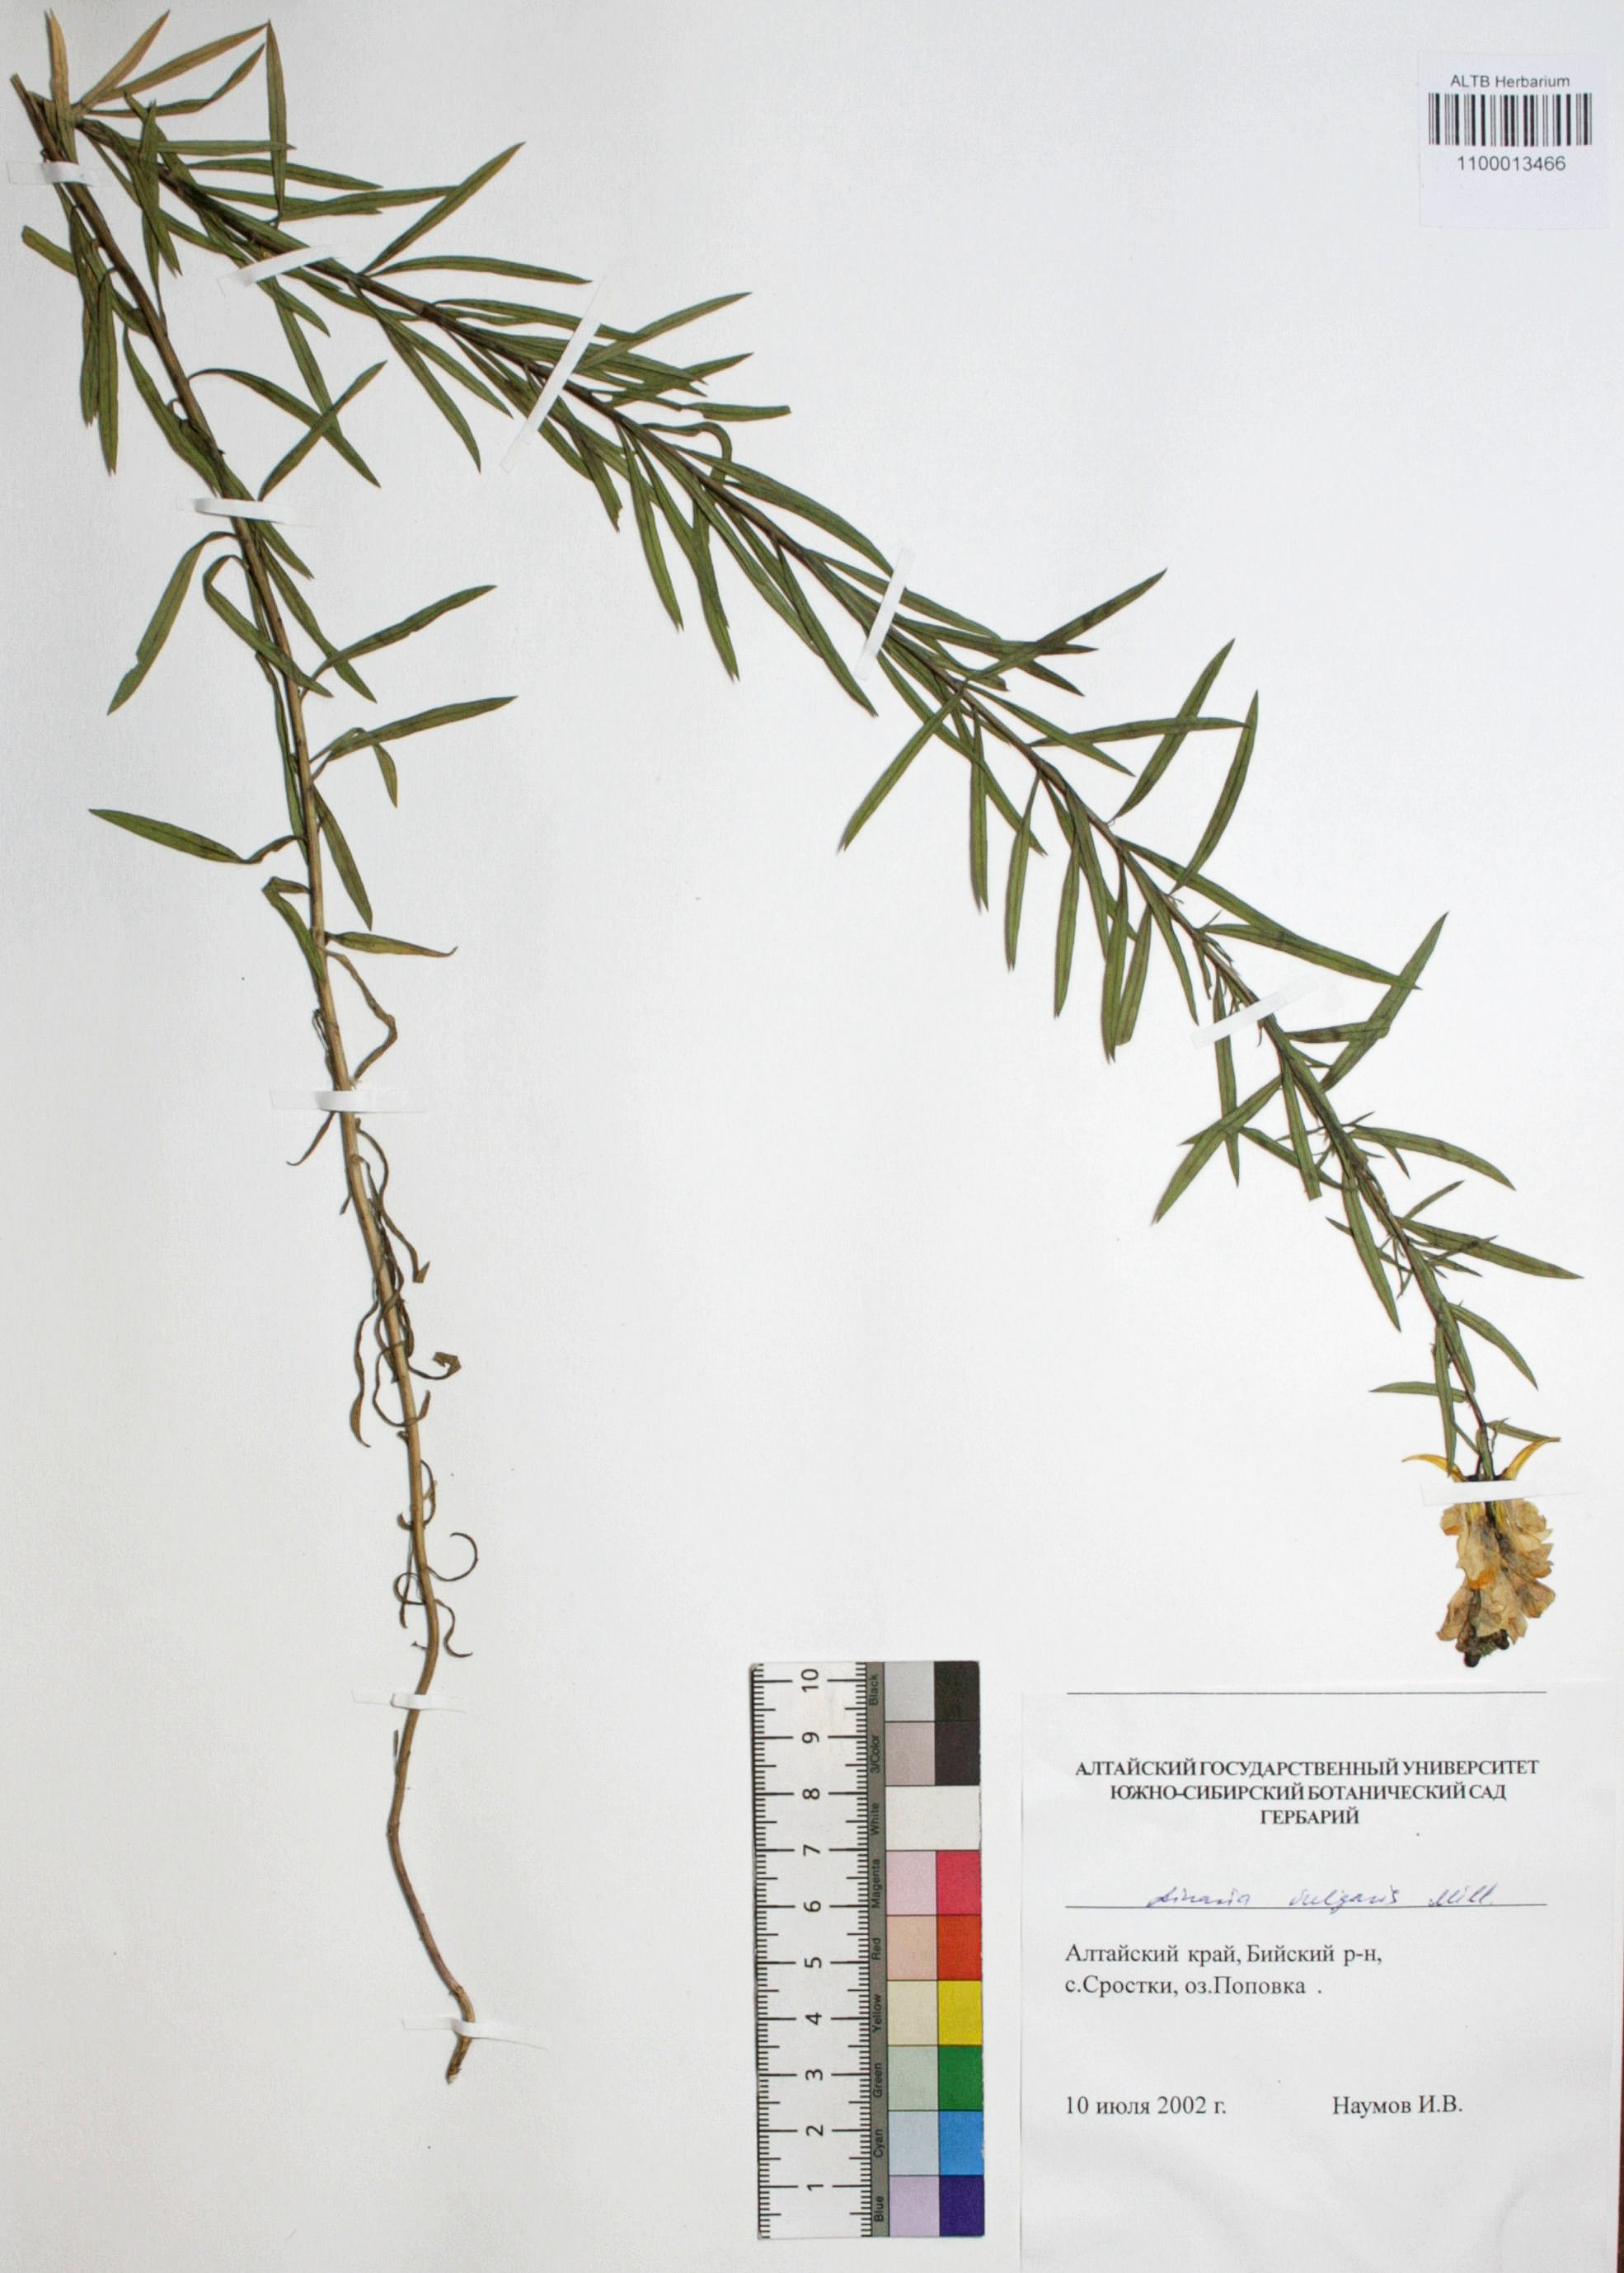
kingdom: Plantae
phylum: Tracheophyta
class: Magnoliopsida
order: Lamiales
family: Plantaginaceae
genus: Linaria
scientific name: Linaria vulgaris
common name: Butter and eggs
